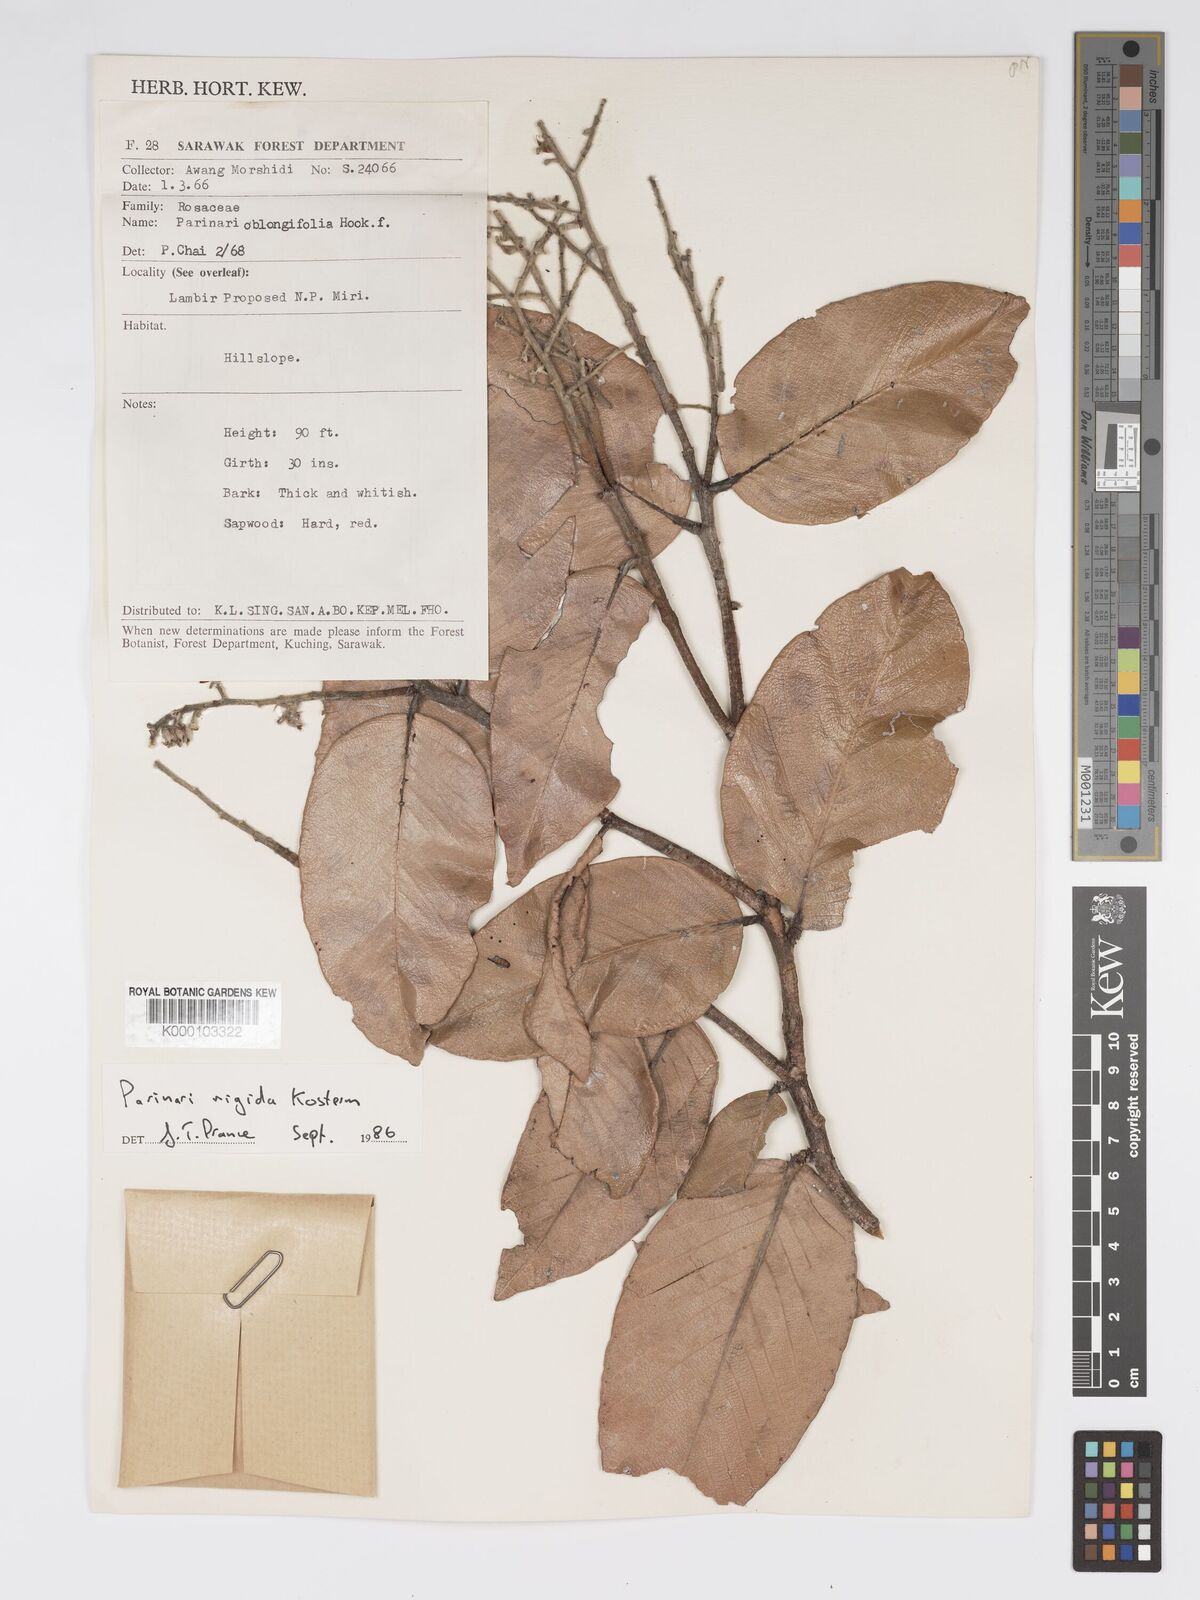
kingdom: Plantae
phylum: Tracheophyta
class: Magnoliopsida
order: Malpighiales
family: Chrysobalanaceae
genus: Parinari
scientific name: Parinari rigida
